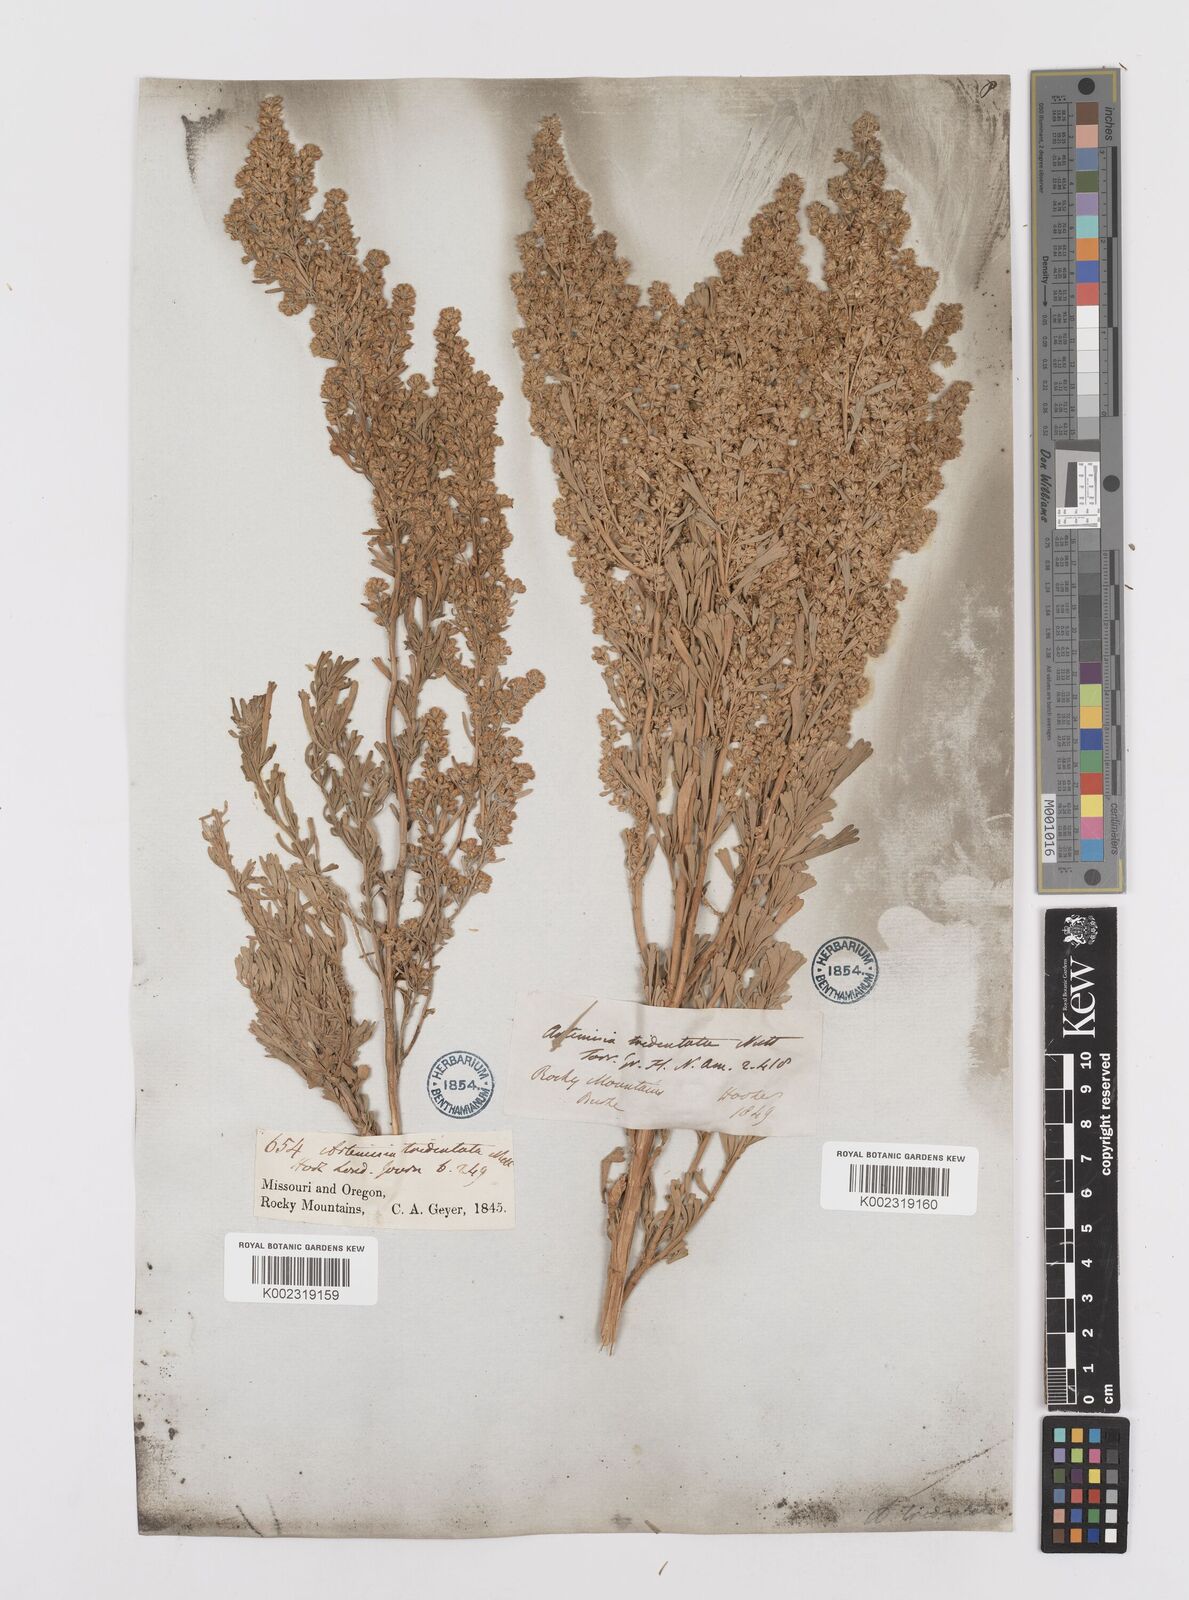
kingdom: Plantae
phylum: Tracheophyta
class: Magnoliopsida
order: Asterales
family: Asteraceae
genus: Artemisia
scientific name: Artemisia tridentata
